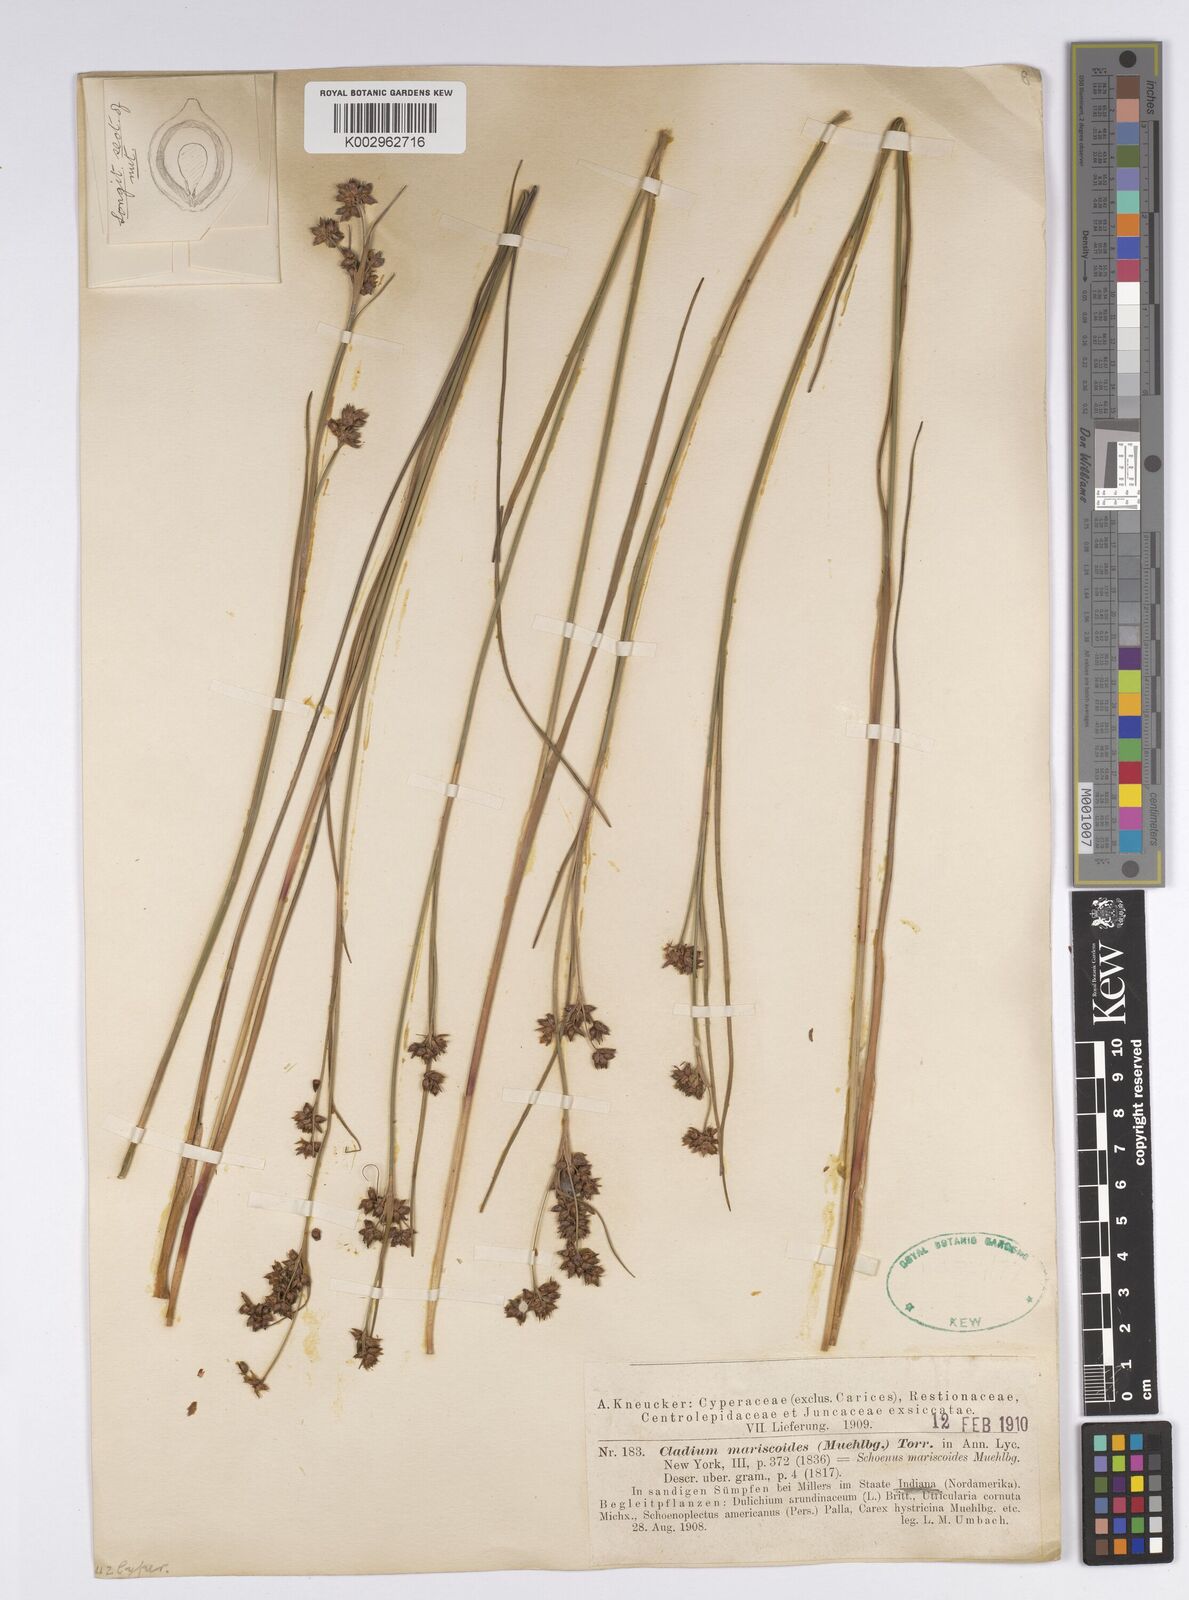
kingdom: Plantae
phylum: Tracheophyta
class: Liliopsida
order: Poales
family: Cyperaceae
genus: Cladium
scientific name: Cladium mariscoides
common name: Smooth sawgrass
